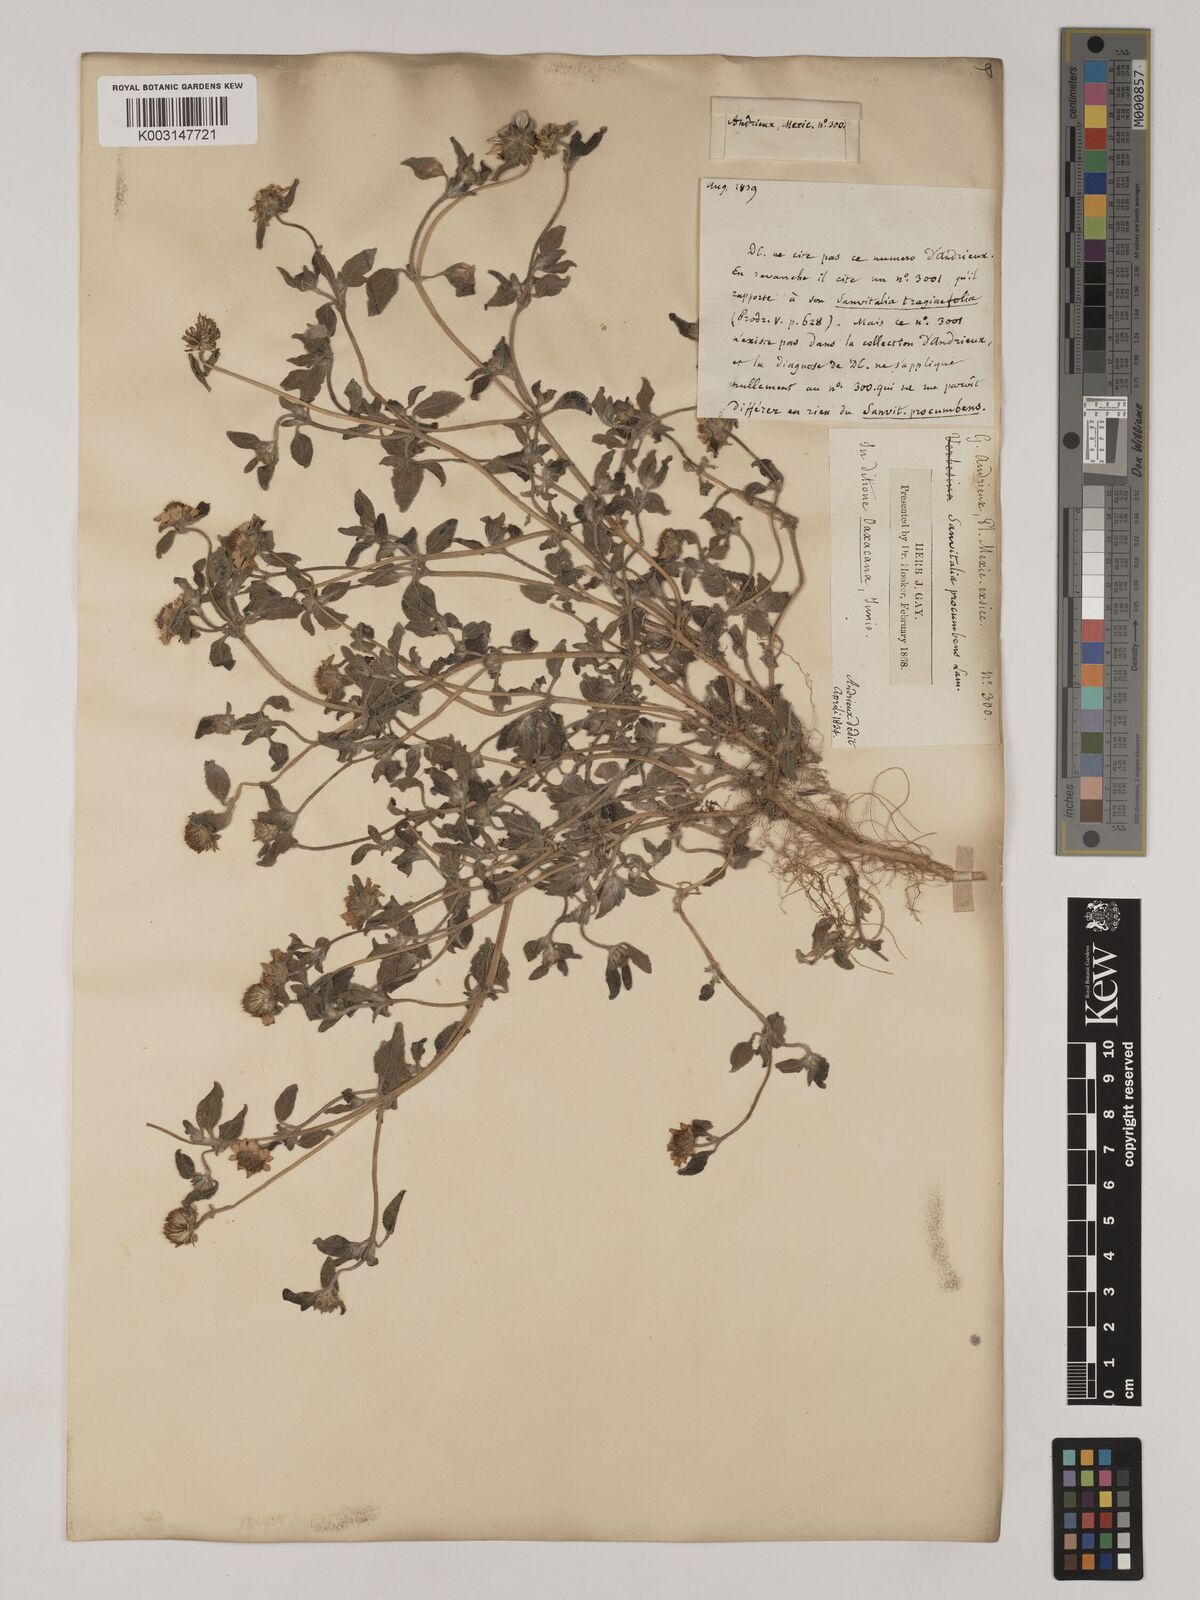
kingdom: Plantae
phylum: Tracheophyta
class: Magnoliopsida
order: Asterales
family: Asteraceae
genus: Sanvitalia
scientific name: Sanvitalia procumbens
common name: Mexican creeping zinnia
